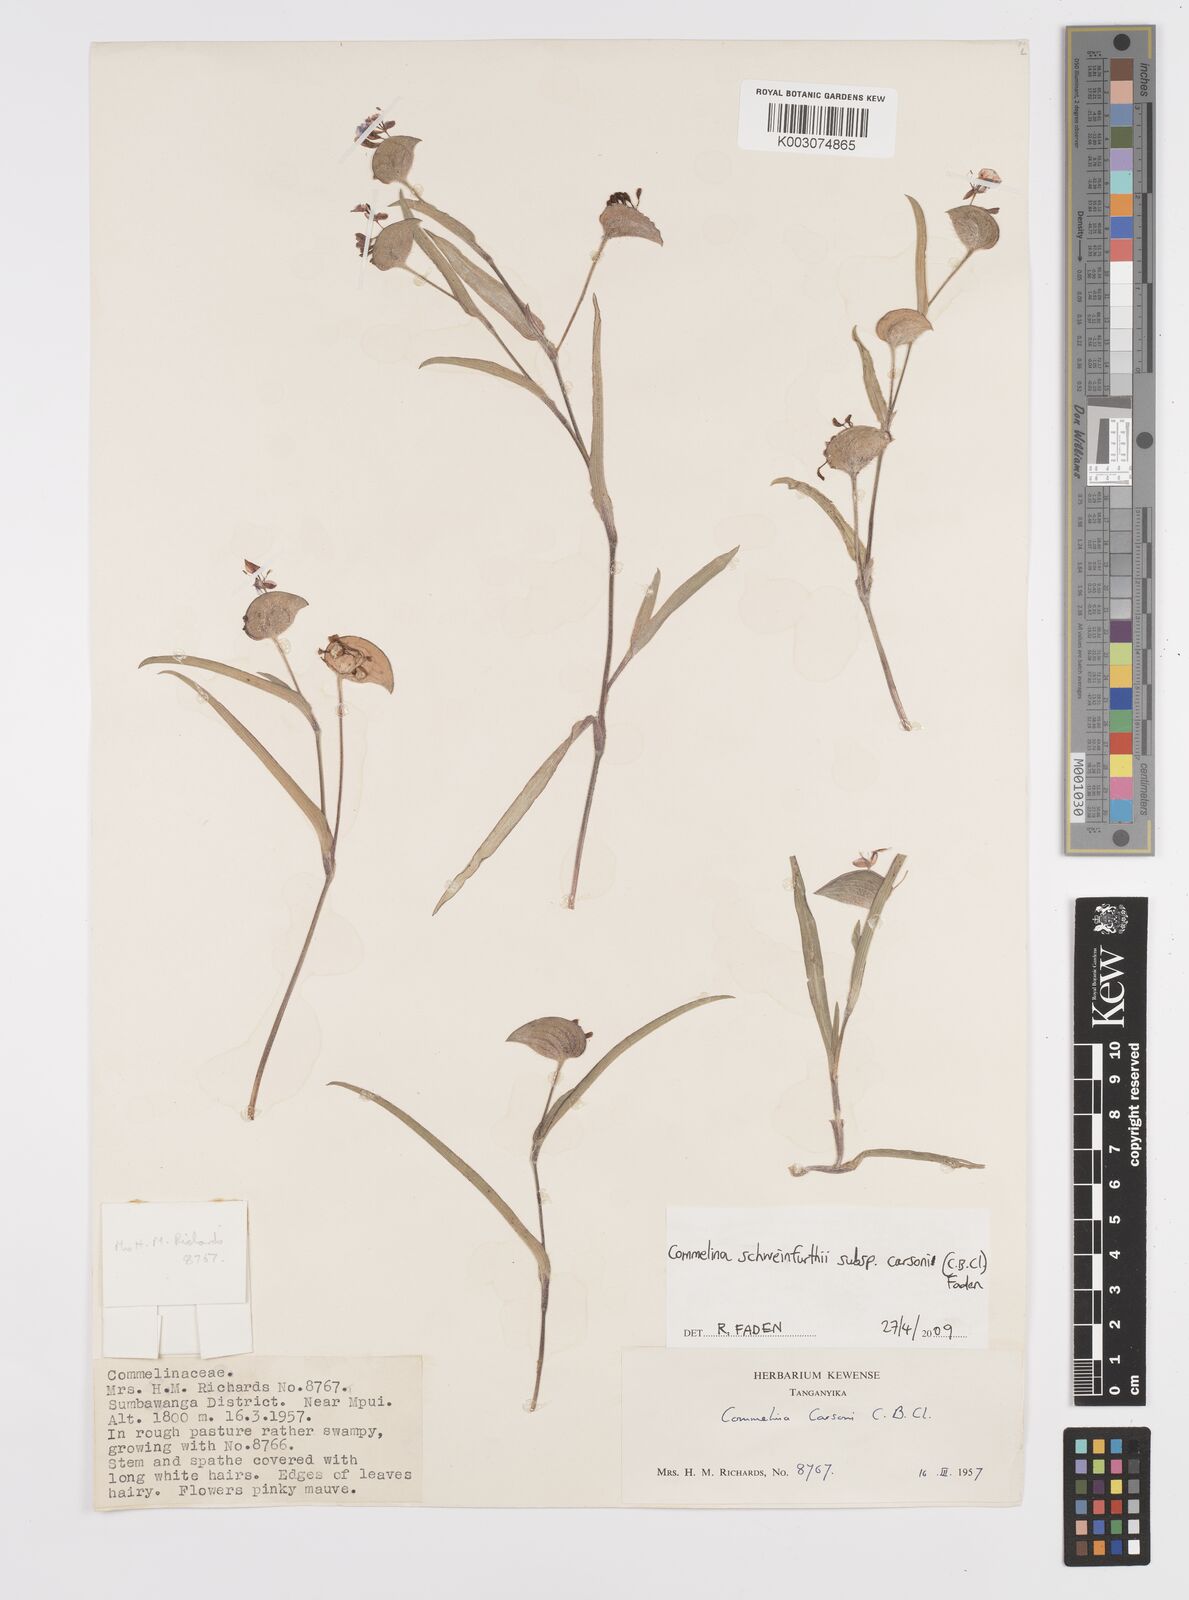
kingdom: Plantae
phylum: Tracheophyta
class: Liliopsida
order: Commelinales
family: Commelinaceae
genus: Commelina
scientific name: Commelina schweinfurthii
